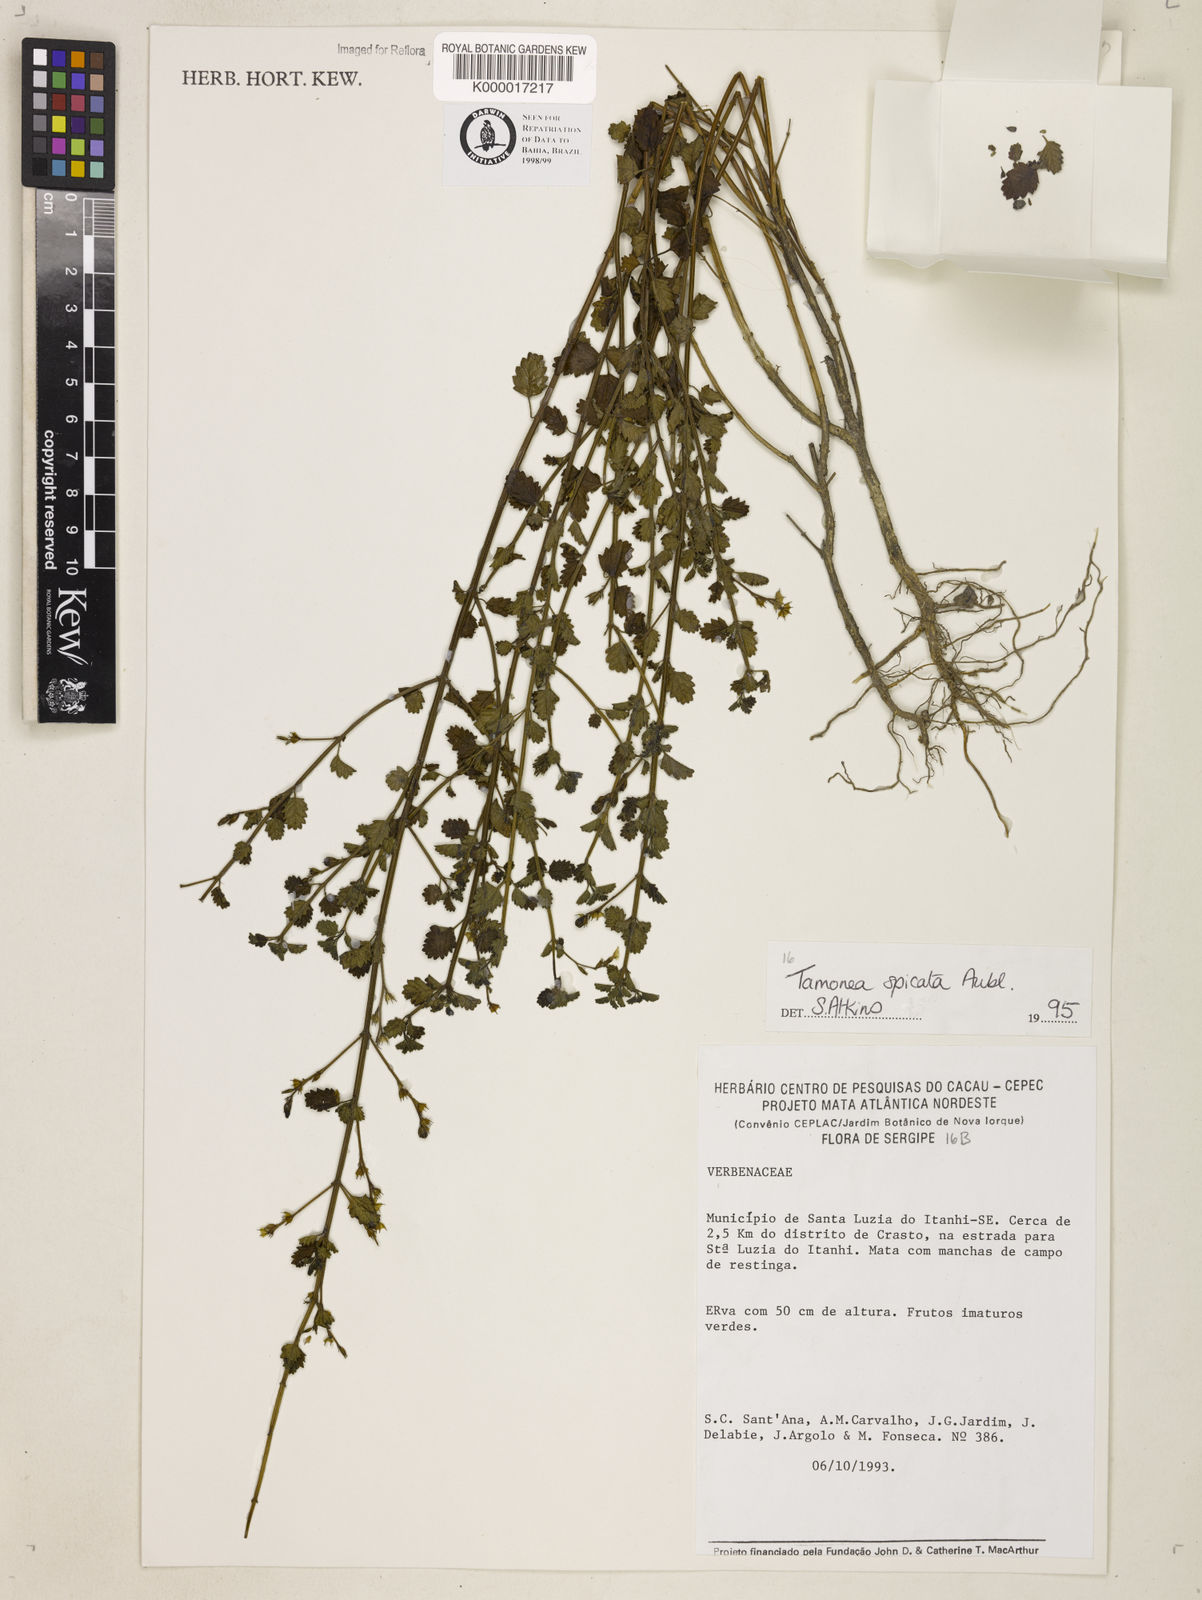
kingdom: Plantae
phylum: Tracheophyta
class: Magnoliopsida
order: Lamiales
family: Verbenaceae
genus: Tamonea
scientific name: Tamonea spicata
